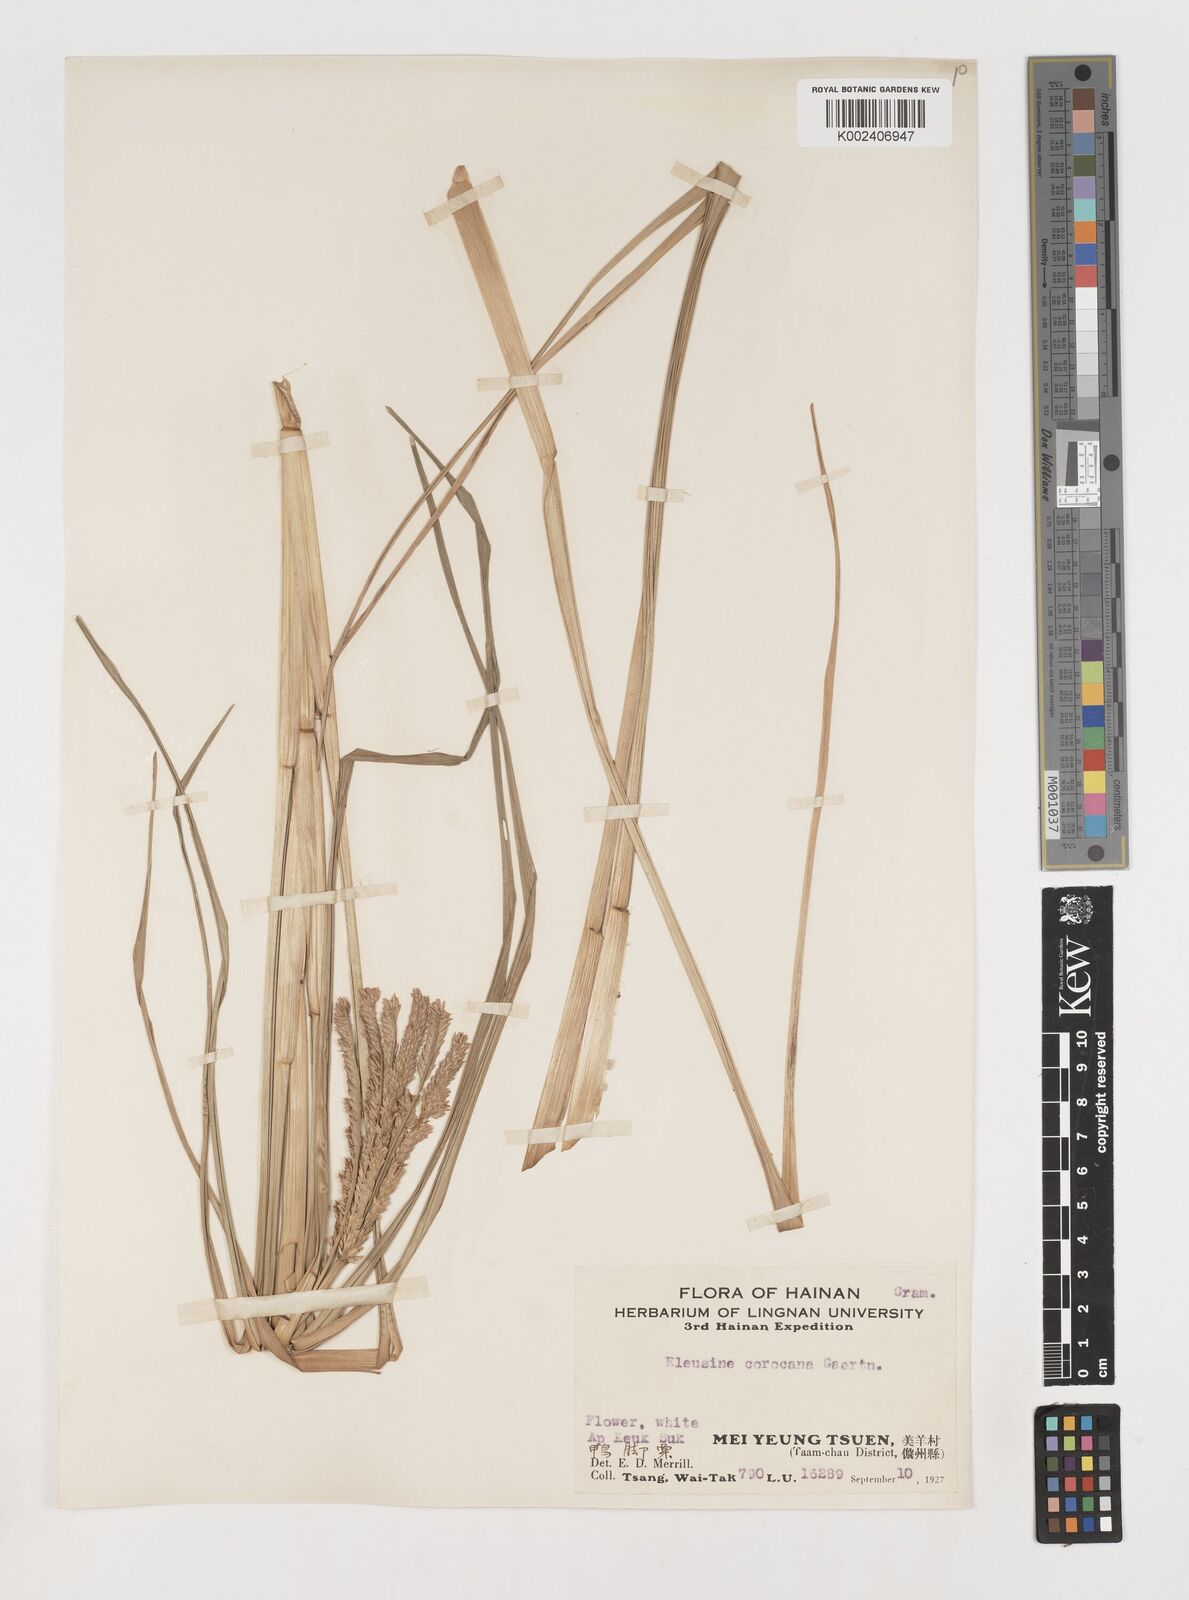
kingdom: Plantae
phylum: Tracheophyta
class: Liliopsida
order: Poales
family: Poaceae
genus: Eleusine
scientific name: Eleusine coracana
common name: Finger millet
